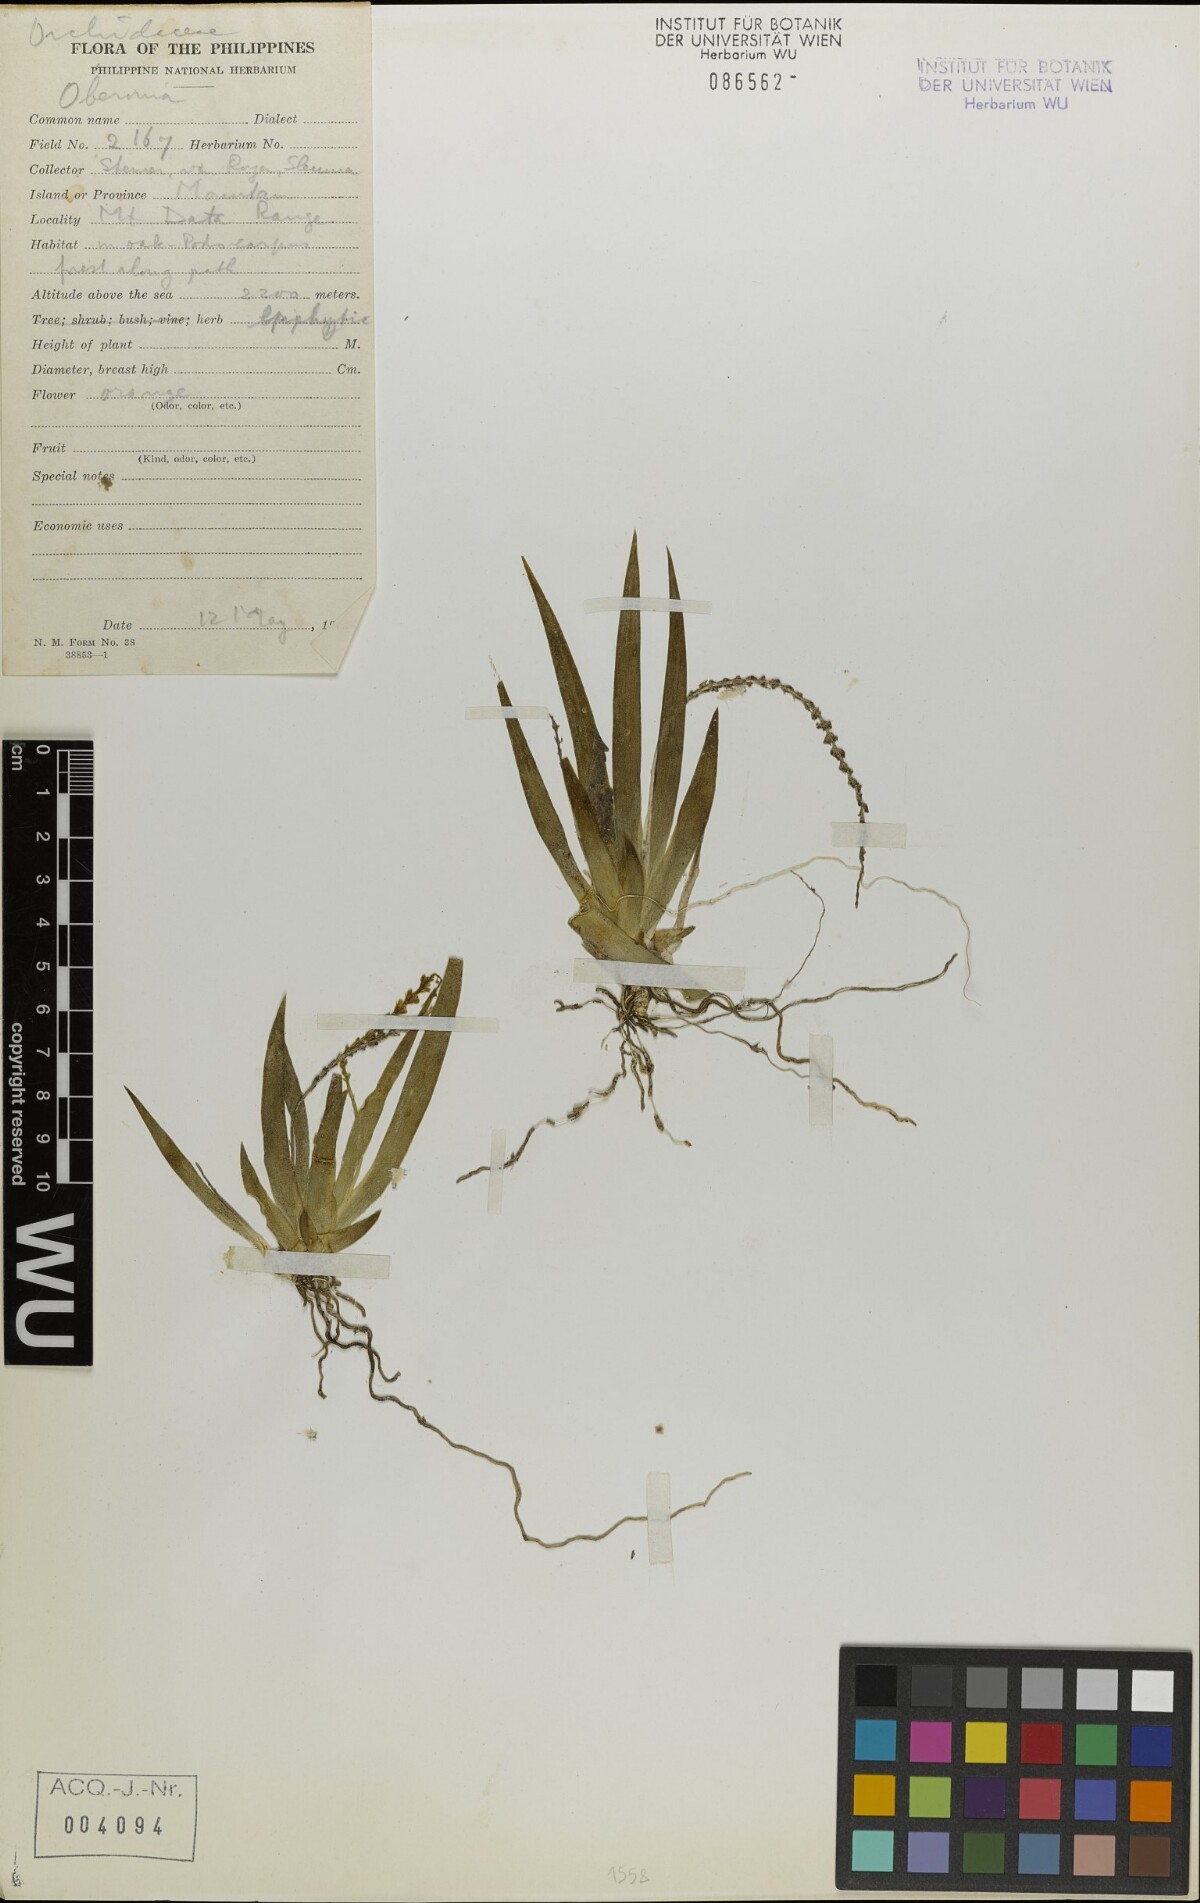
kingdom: Plantae
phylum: Tracheophyta
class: Liliopsida
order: Asparagales
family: Orchidaceae
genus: Oberonia
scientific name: Oberonia
